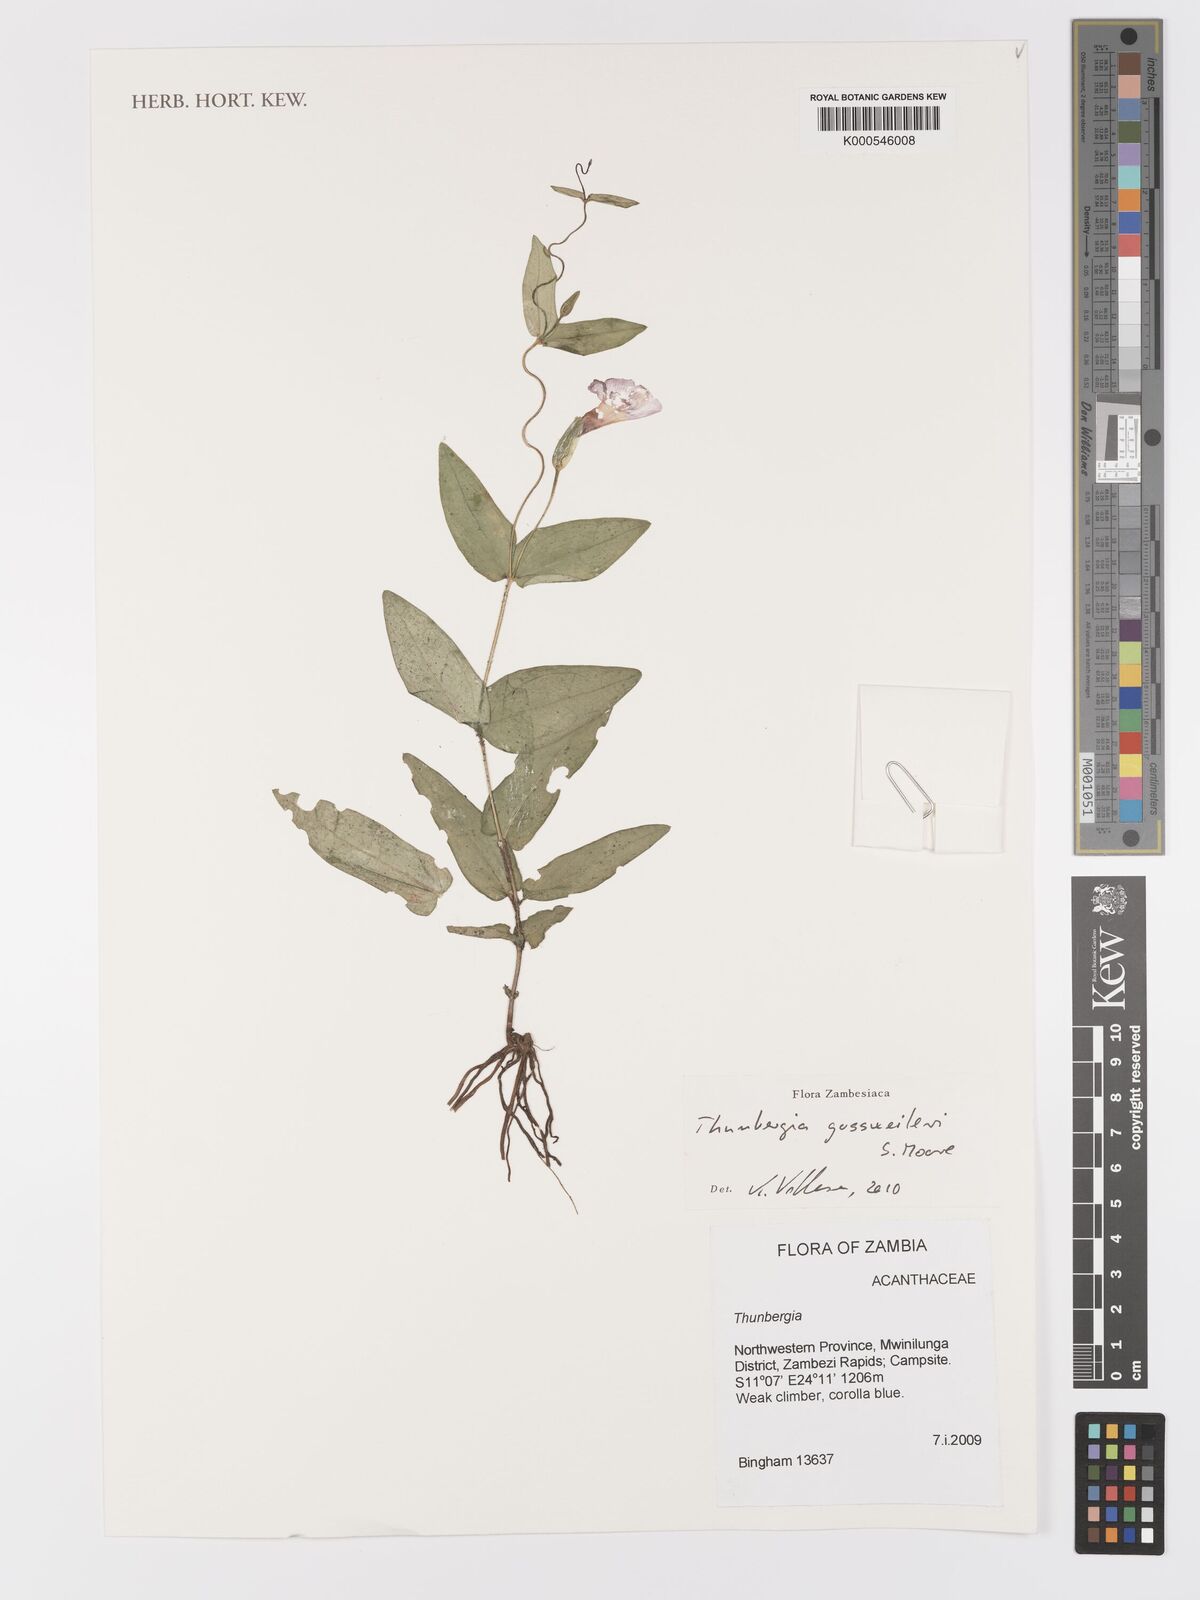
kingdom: Plantae
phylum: Tracheophyta
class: Magnoliopsida
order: Lamiales
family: Acanthaceae
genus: Thunbergia
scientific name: Thunbergia gossweileri
